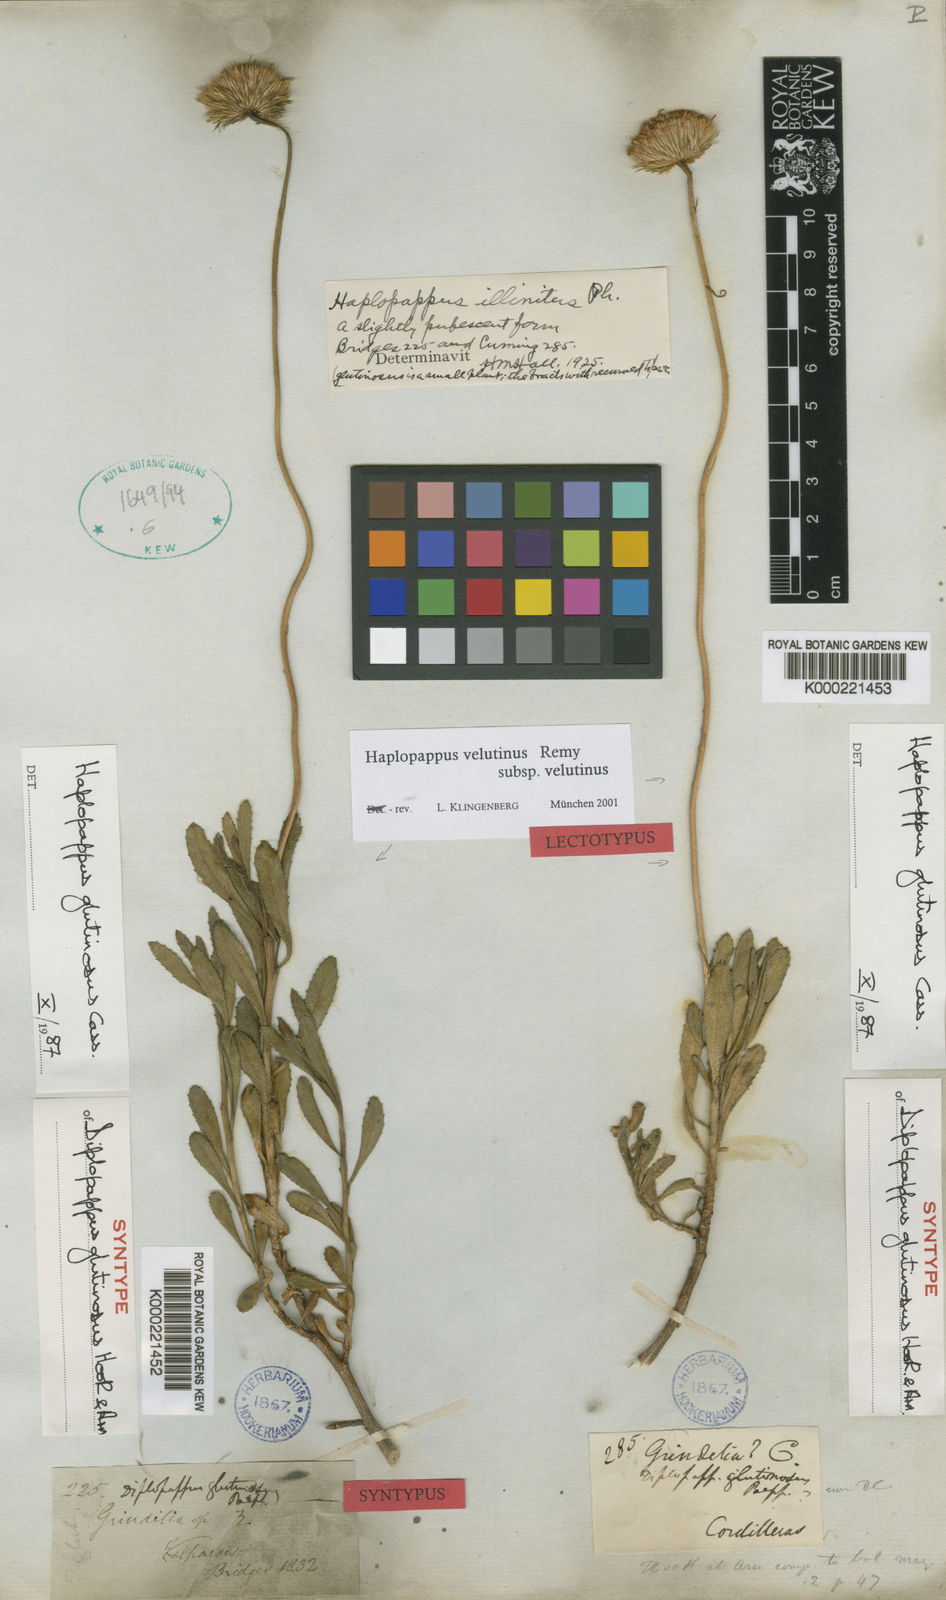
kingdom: Plantae
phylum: Tracheophyta
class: Magnoliopsida
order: Asterales
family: Asteraceae
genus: Haplopappus
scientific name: Haplopappus velutinus
